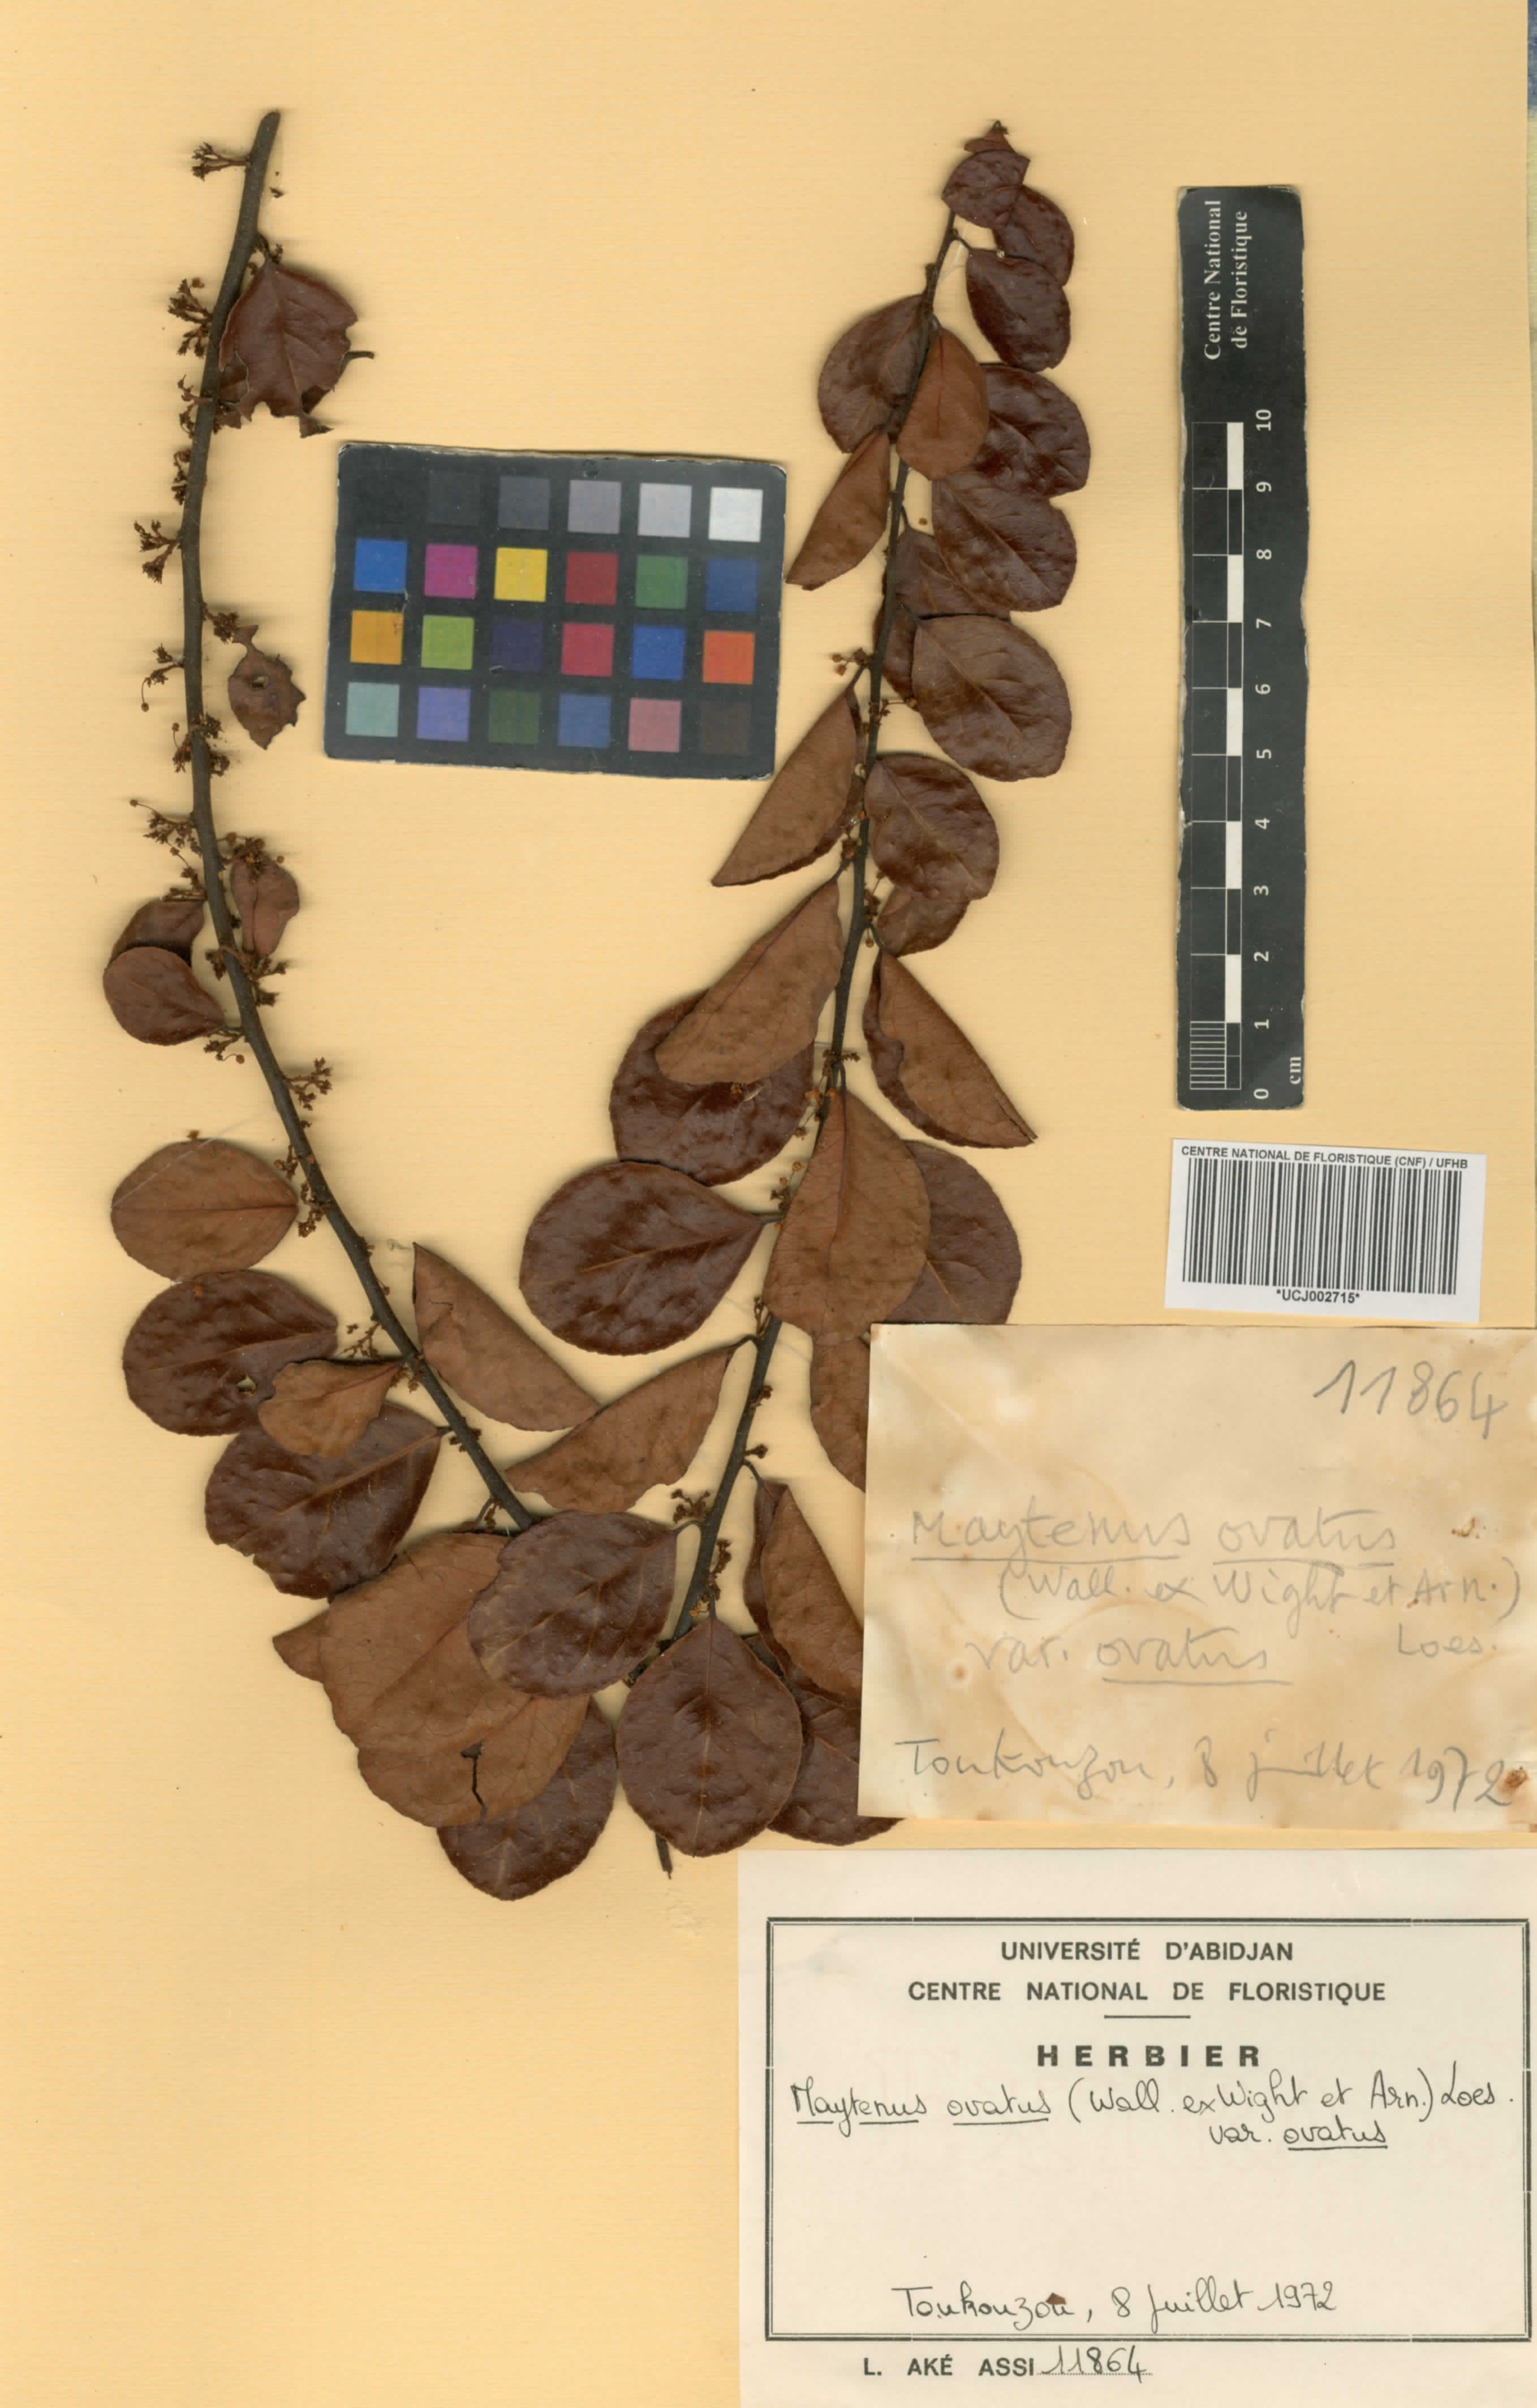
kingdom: Plantae
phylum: Tracheophyta
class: Magnoliopsida
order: Celastrales
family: Celastraceae
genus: Gymnosporia
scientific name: Gymnosporia buchananii
